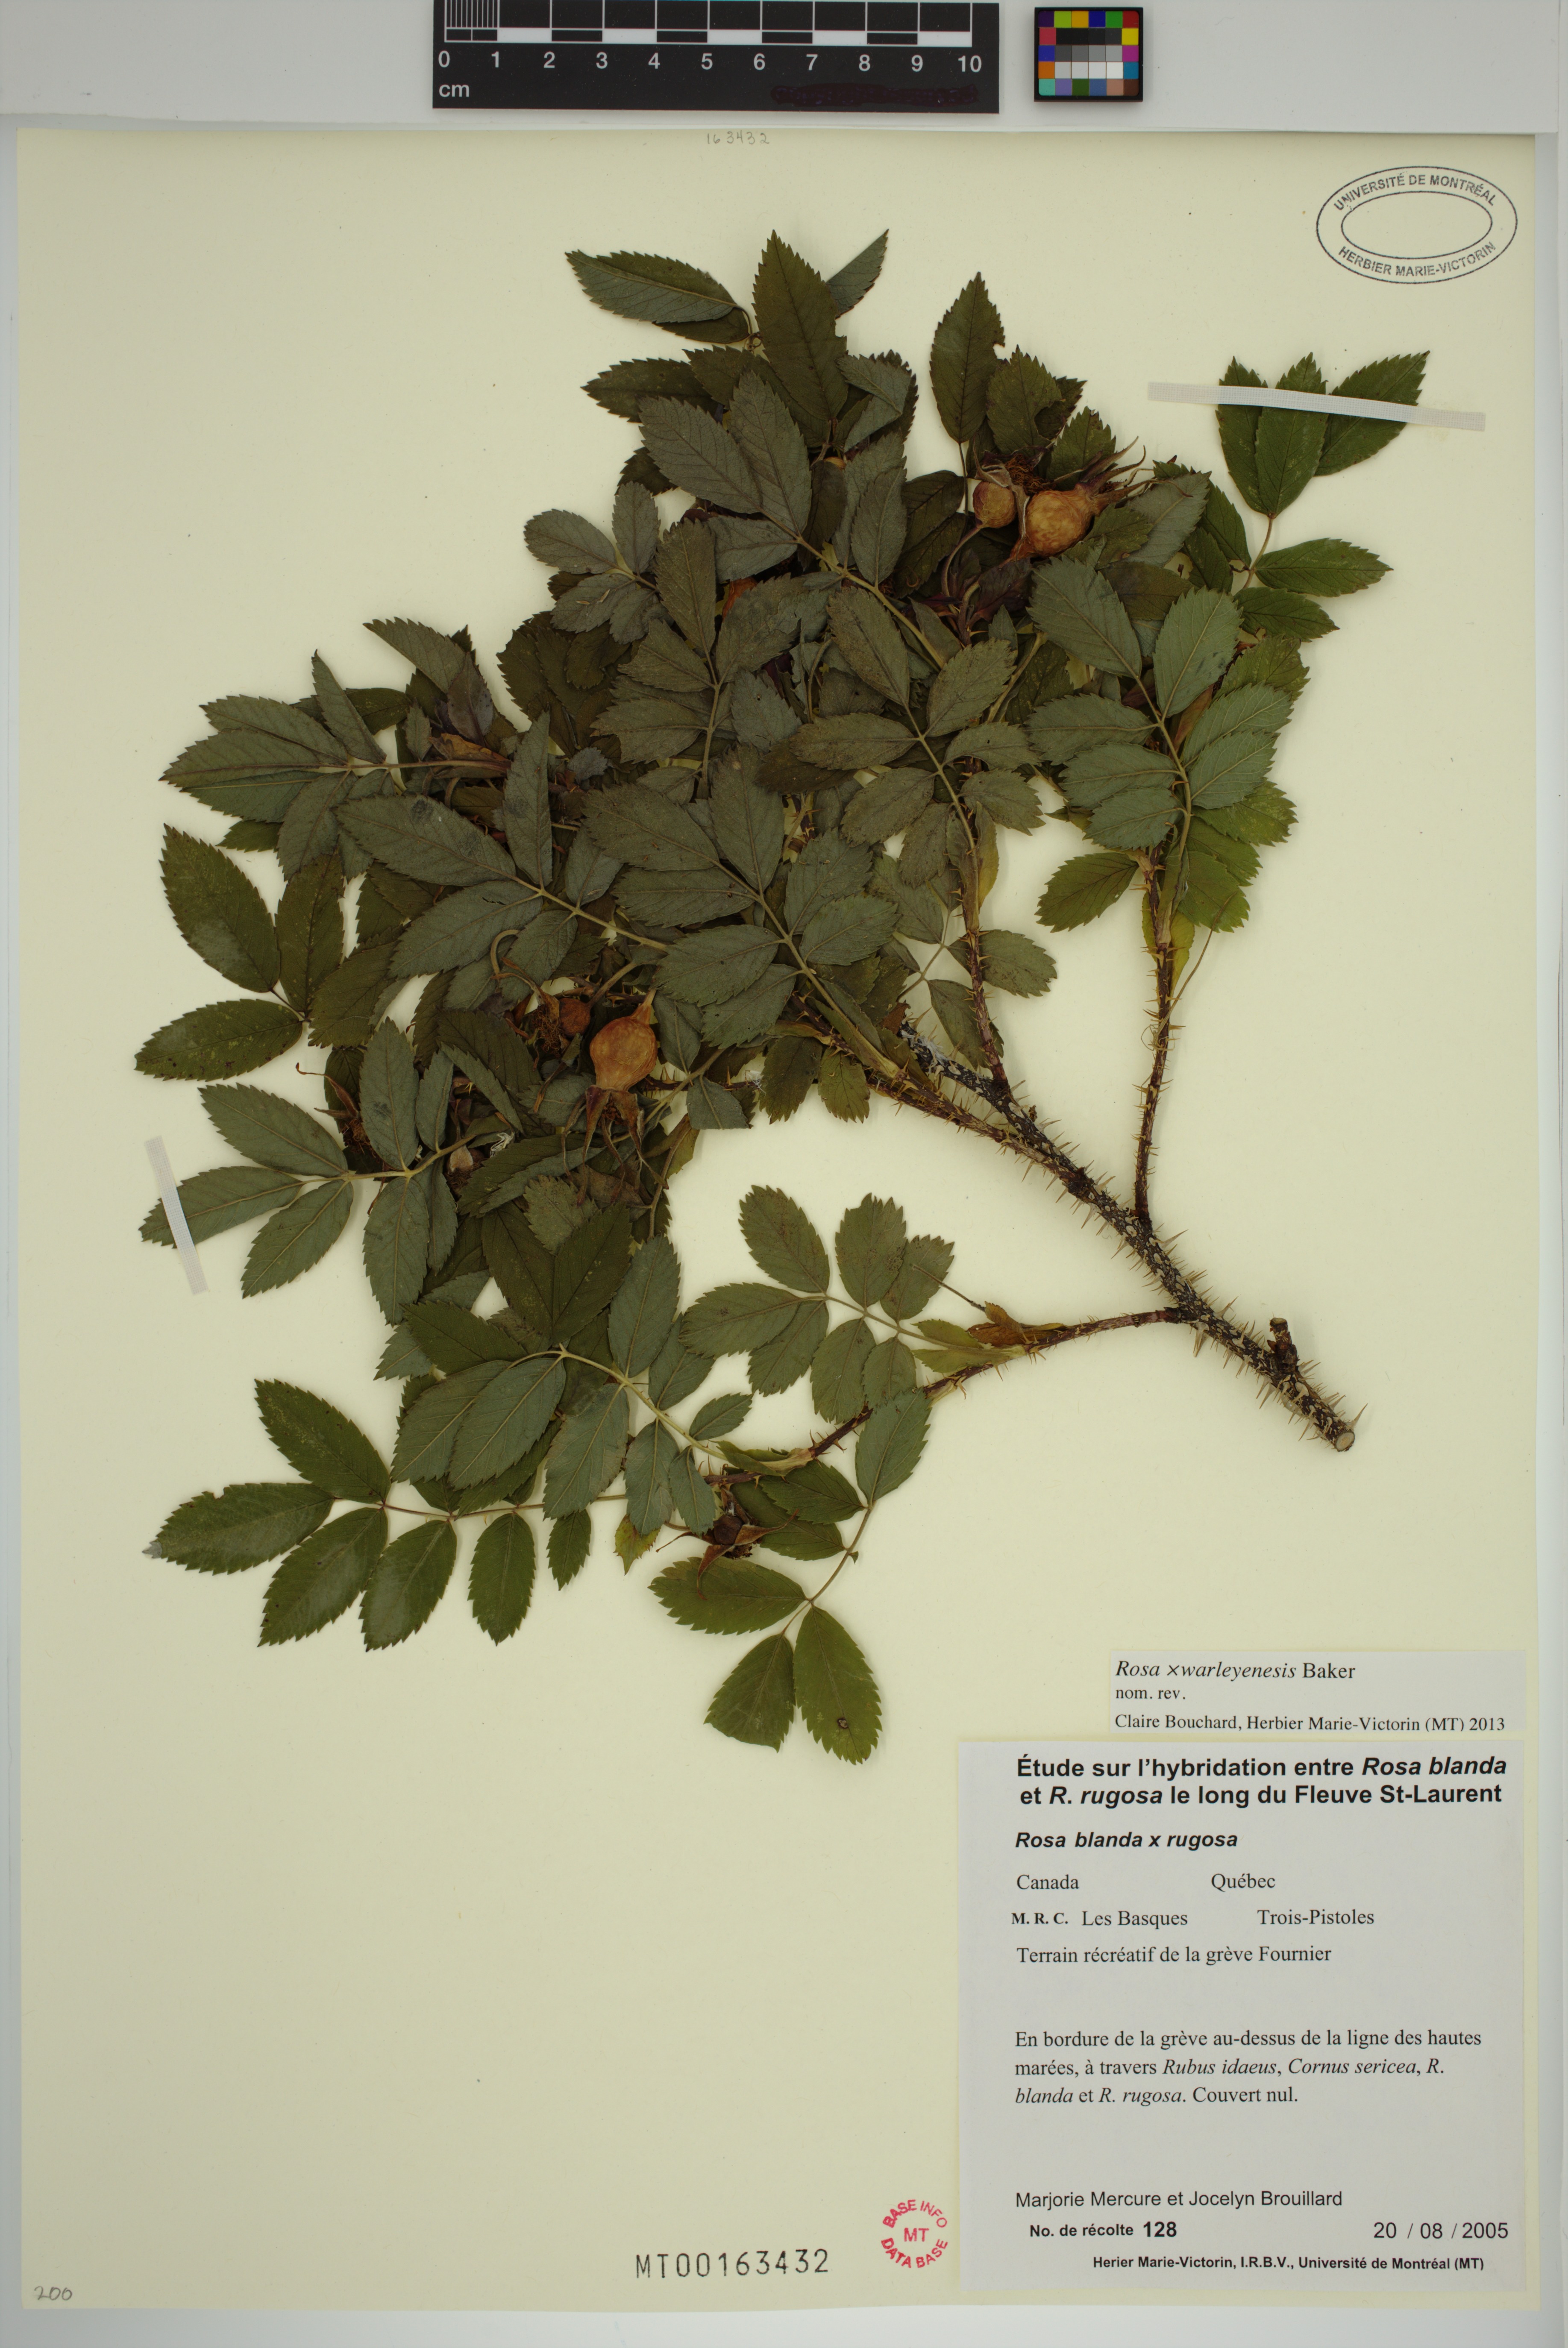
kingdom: Plantae
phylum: Tracheophyta
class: Magnoliopsida
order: Rosales
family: Rosaceae
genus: Rosa
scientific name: Rosa warleyensis
